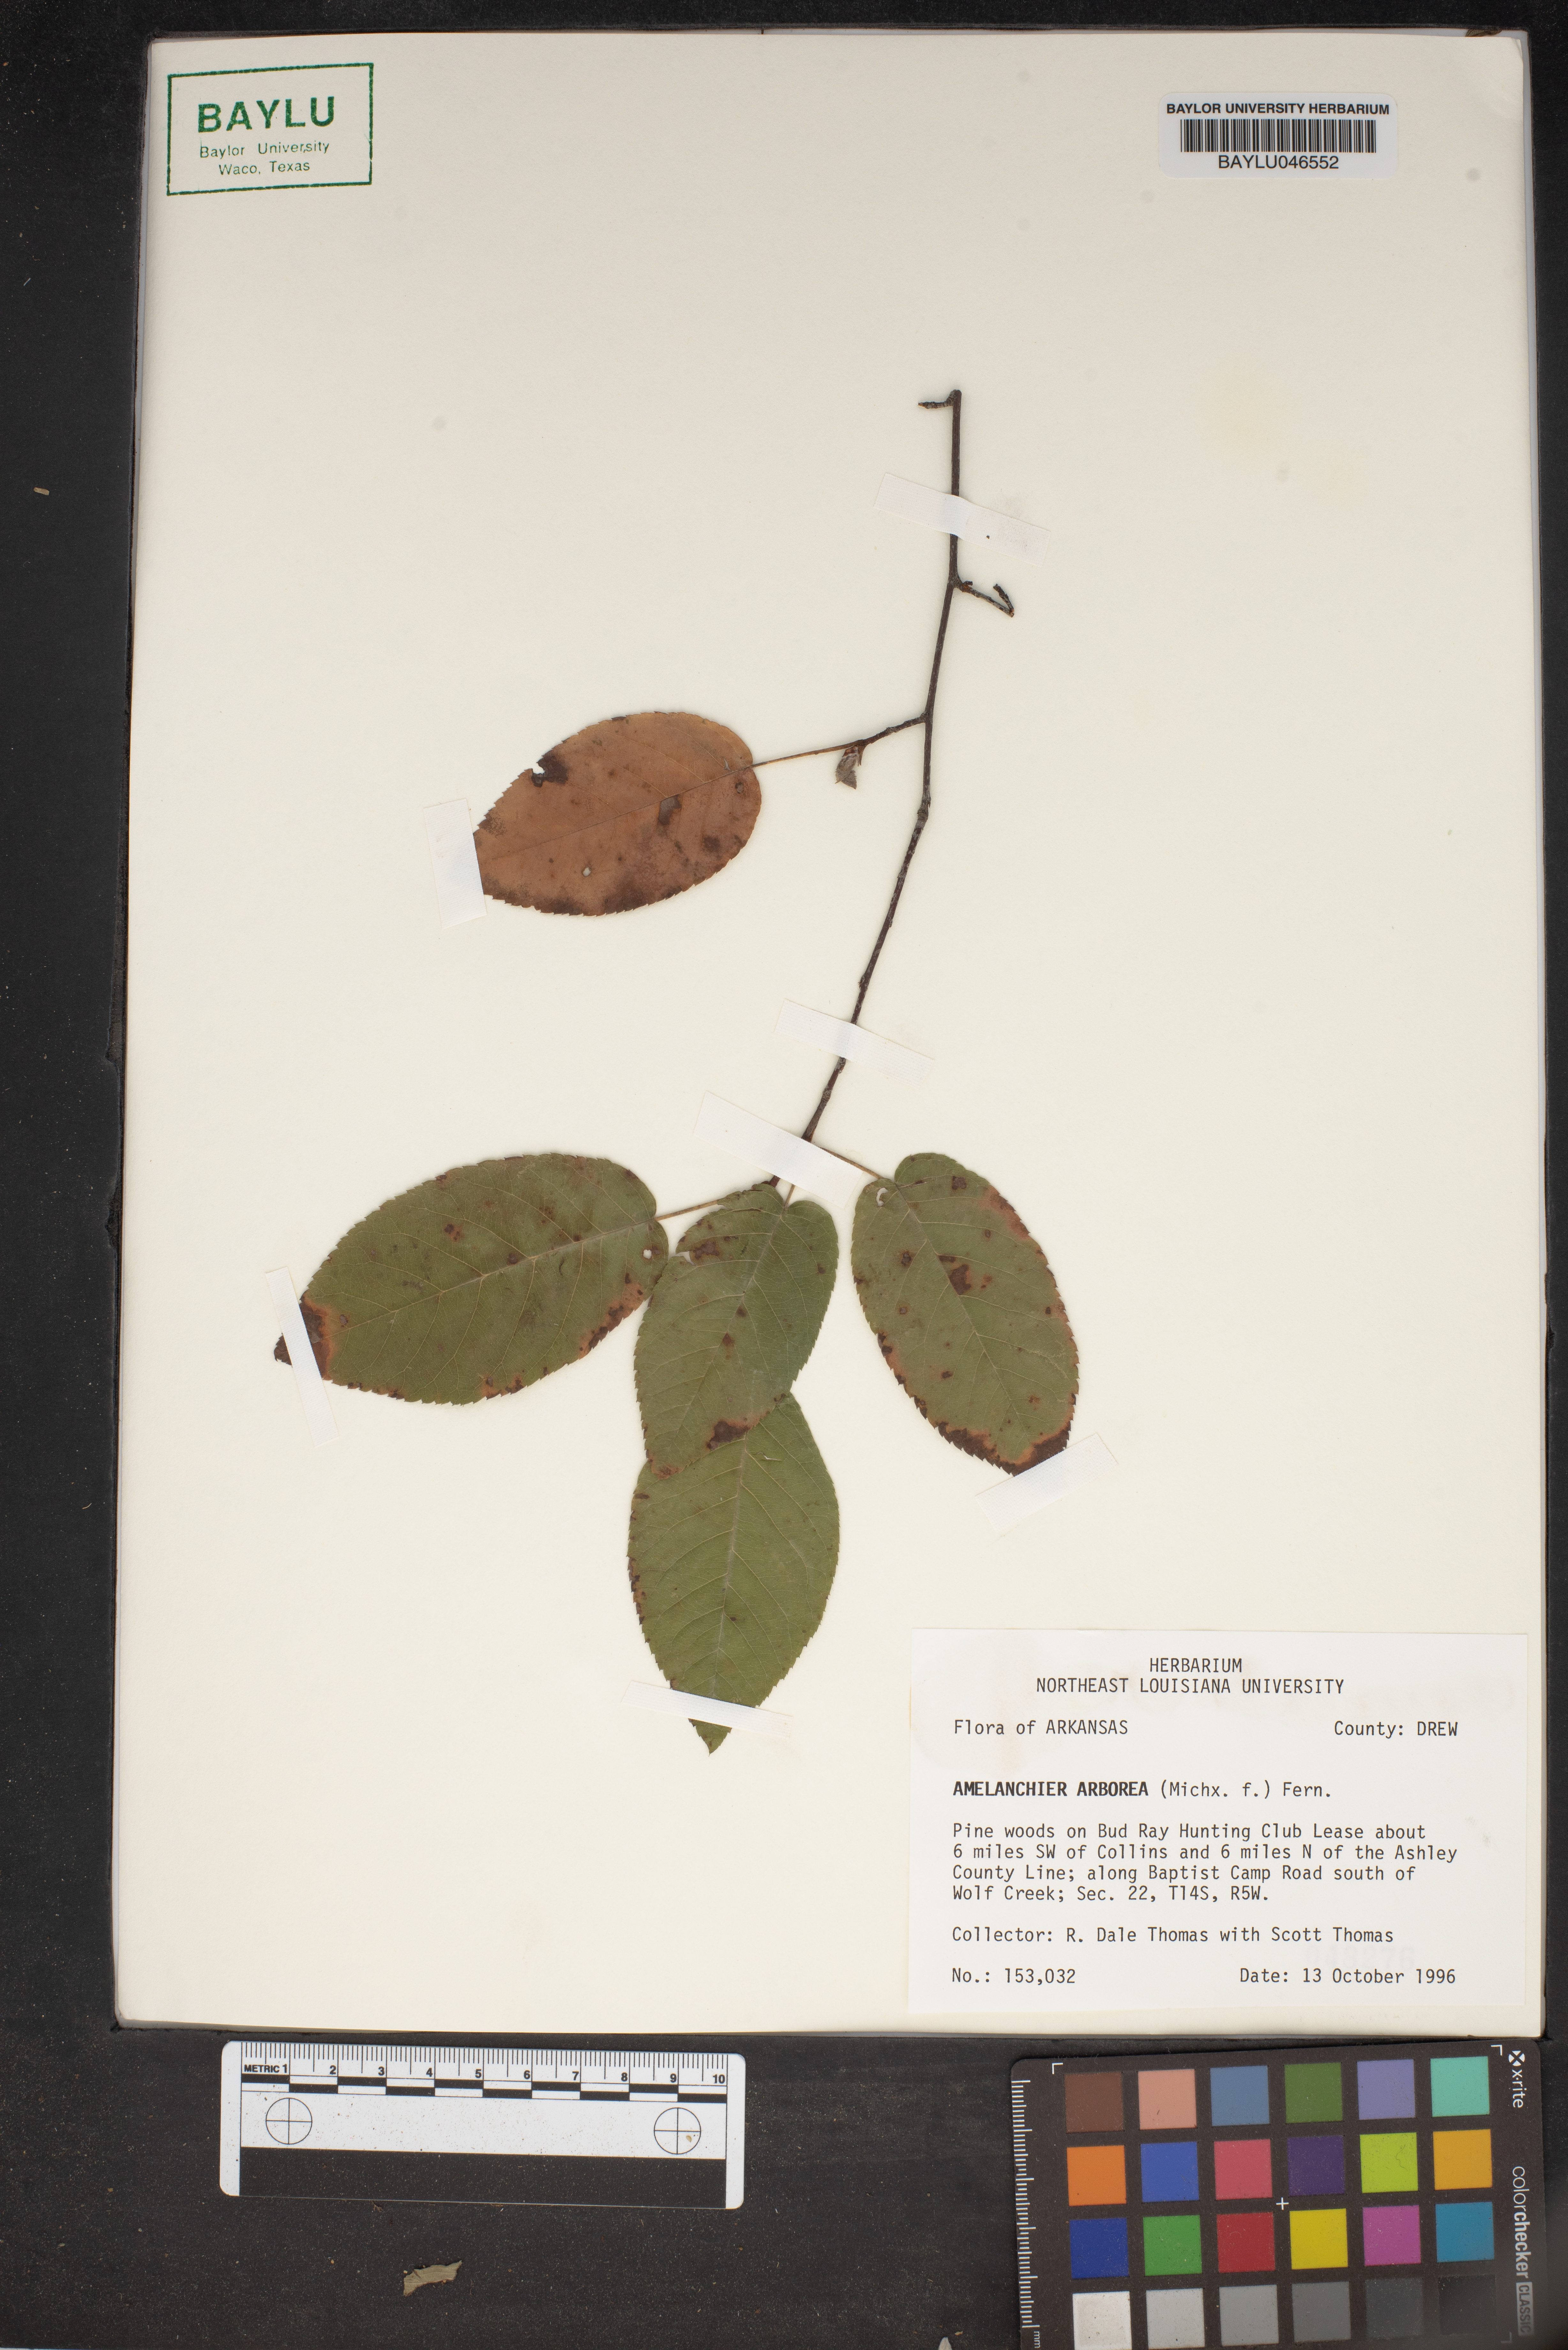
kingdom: Plantae
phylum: Tracheophyta
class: Magnoliopsida
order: Rosales
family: Rosaceae
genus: Amelanchier
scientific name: Amelanchier arborea
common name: Downy serviceberry
